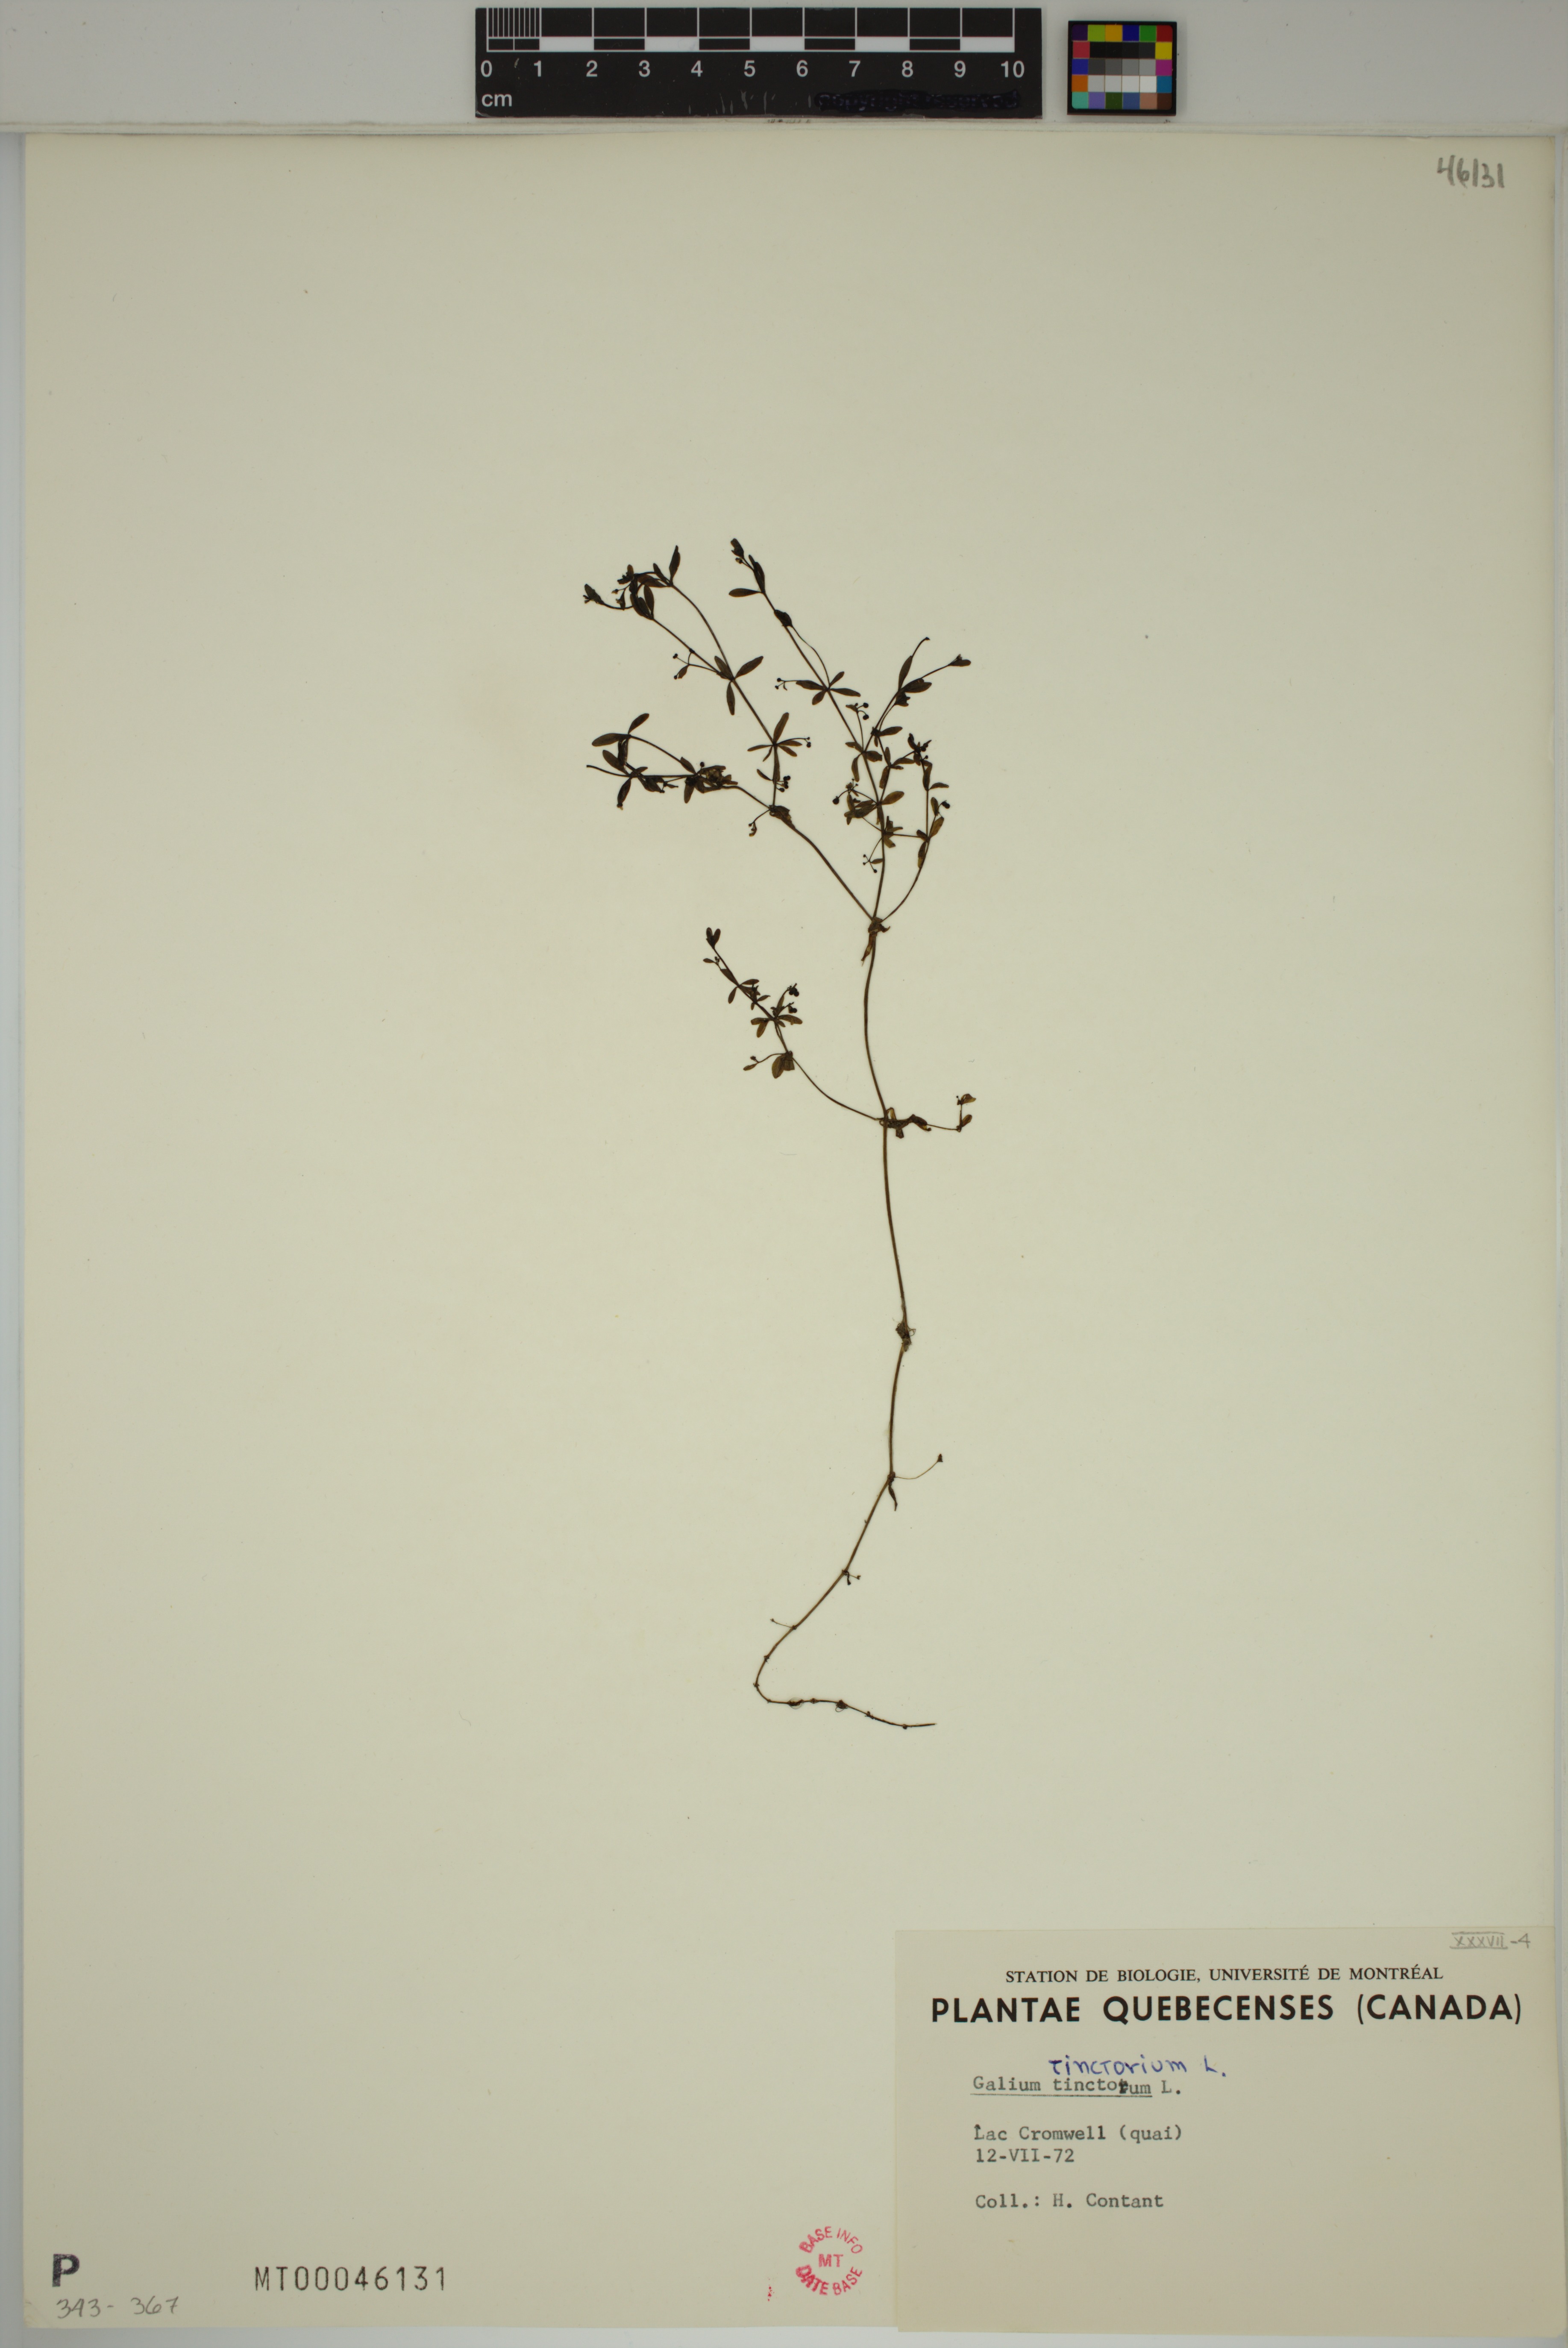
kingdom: Plantae
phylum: Tracheophyta
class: Magnoliopsida
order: Gentianales
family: Rubiaceae
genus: Galium
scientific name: Galium tinctorium
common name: Bedstraw
